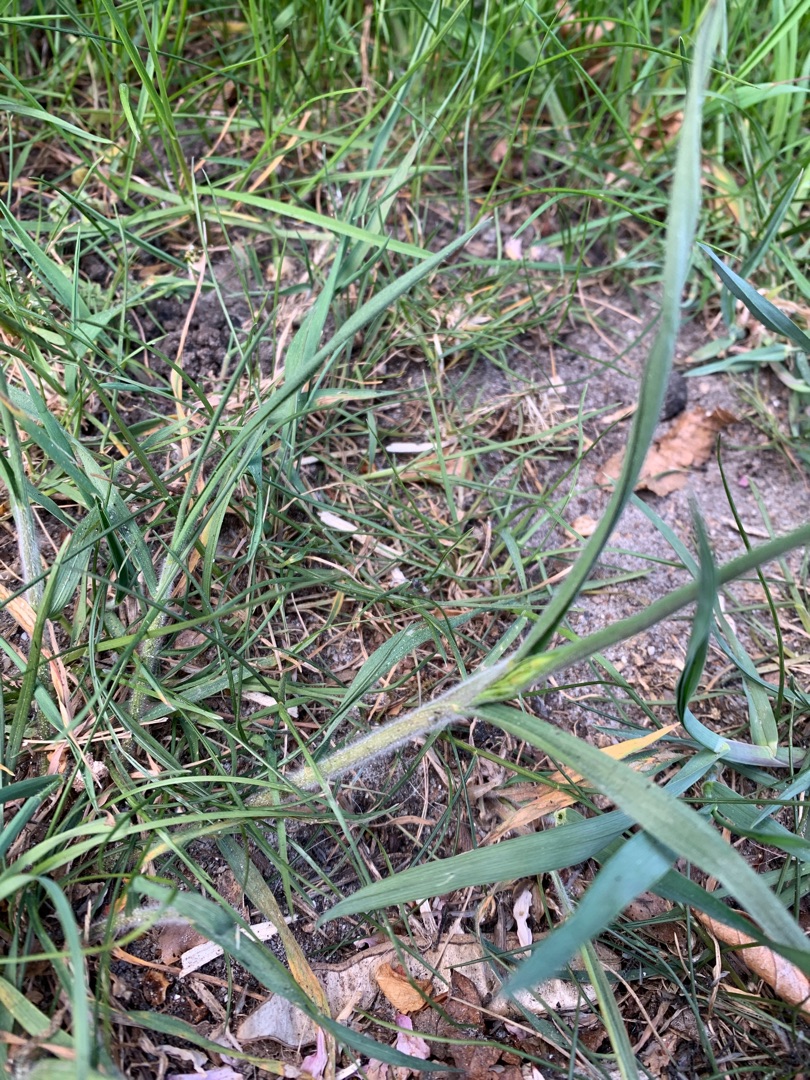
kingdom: Plantae
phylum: Tracheophyta
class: Liliopsida
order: Poales
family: Poaceae
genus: Bromus
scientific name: Bromus hordeaceus
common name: Blød hejre
